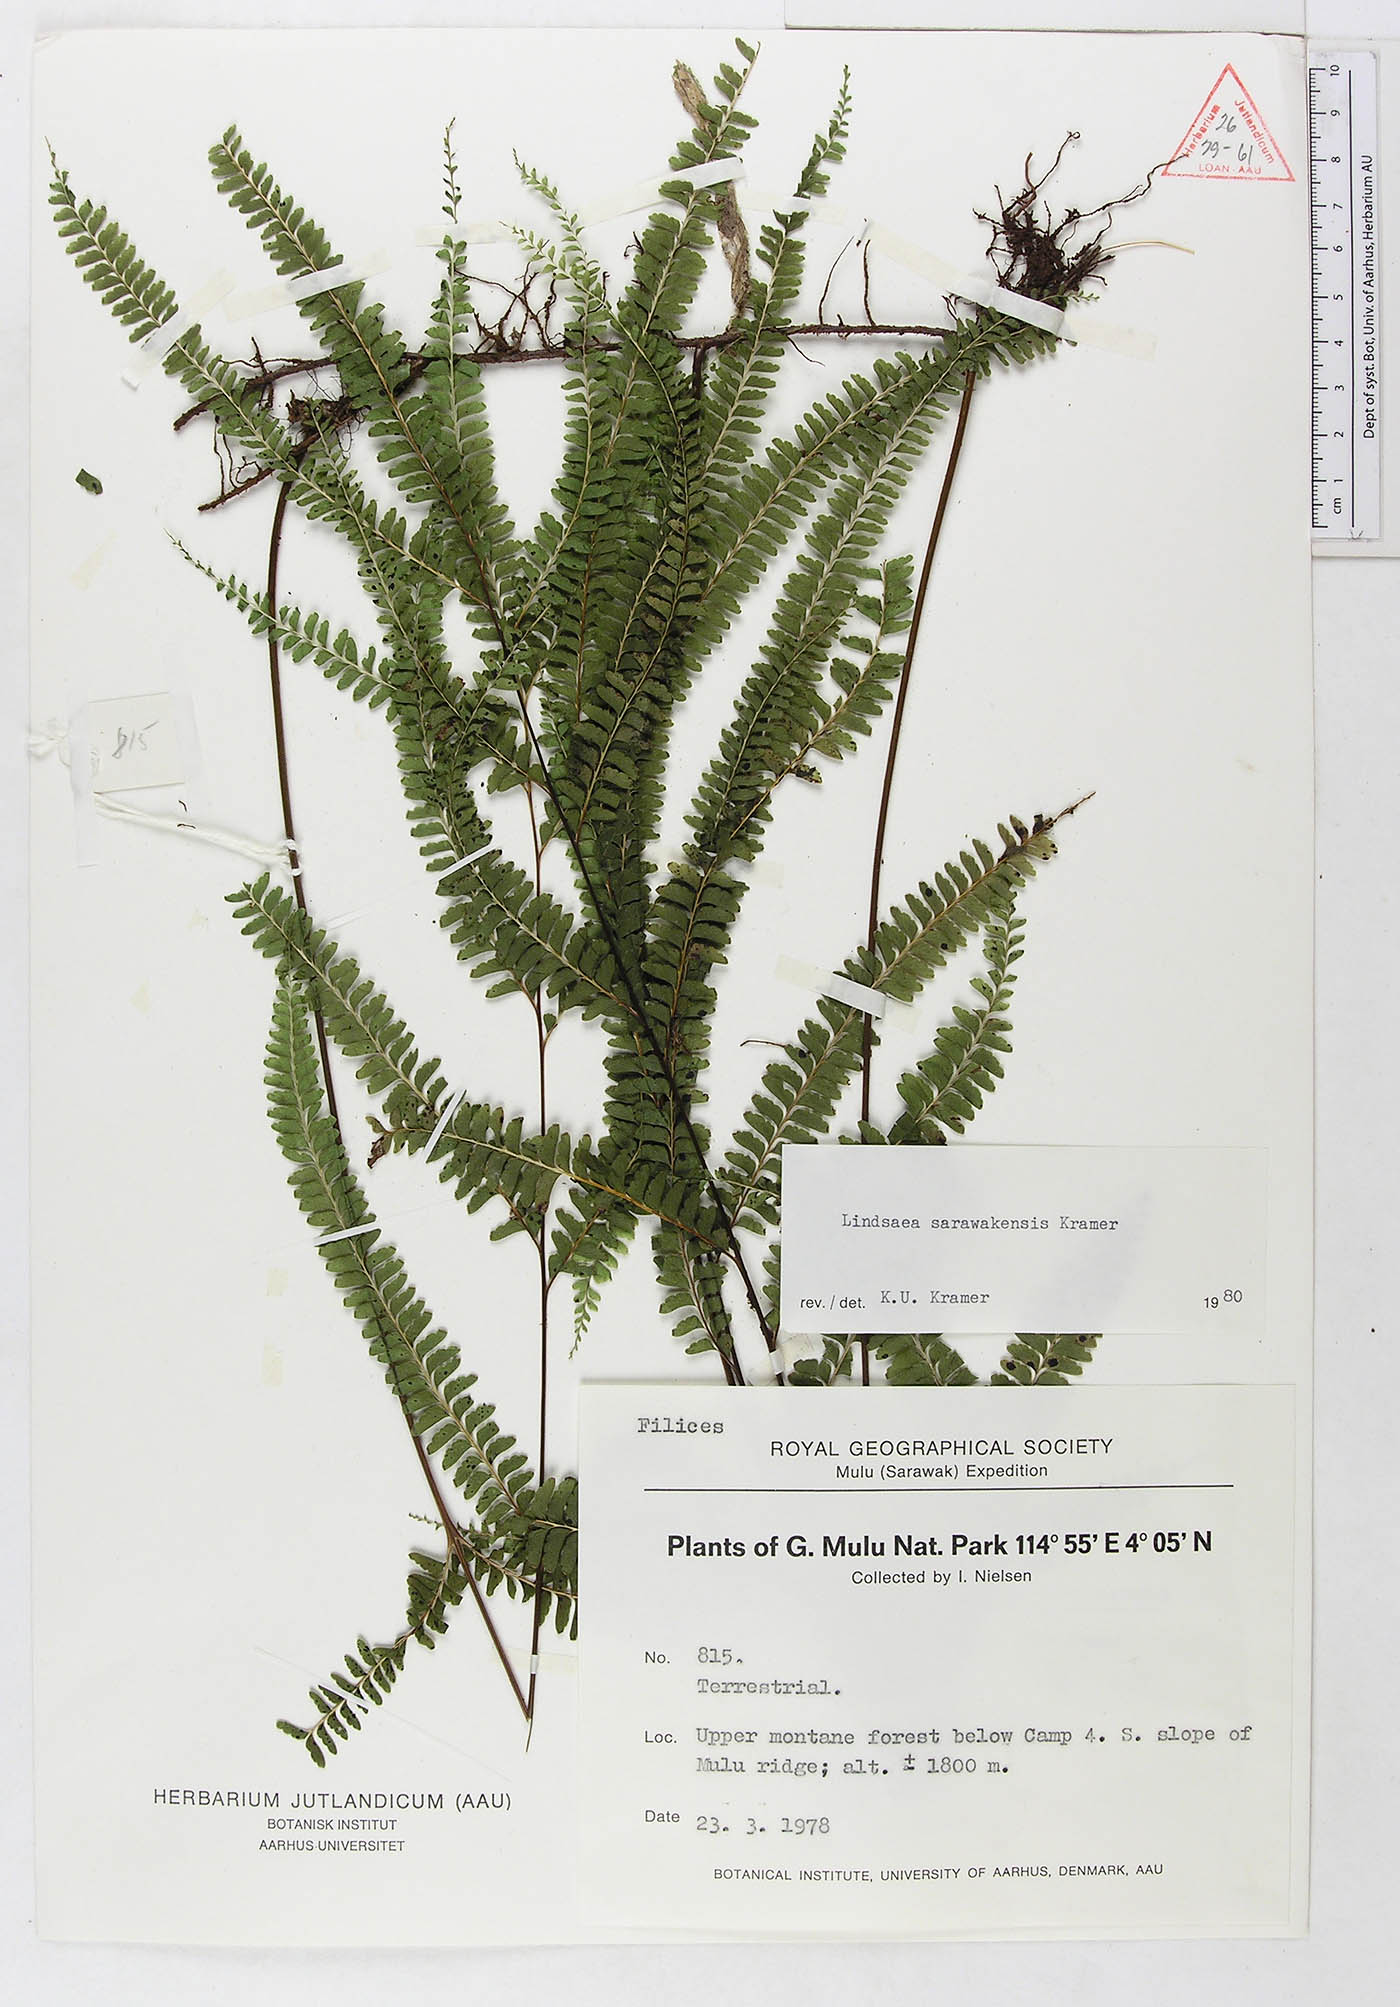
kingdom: Plantae
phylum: Tracheophyta
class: Polypodiopsida
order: Polypodiales
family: Lindsaeaceae
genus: Lindsaea
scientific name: Lindsaea sarawakensis
